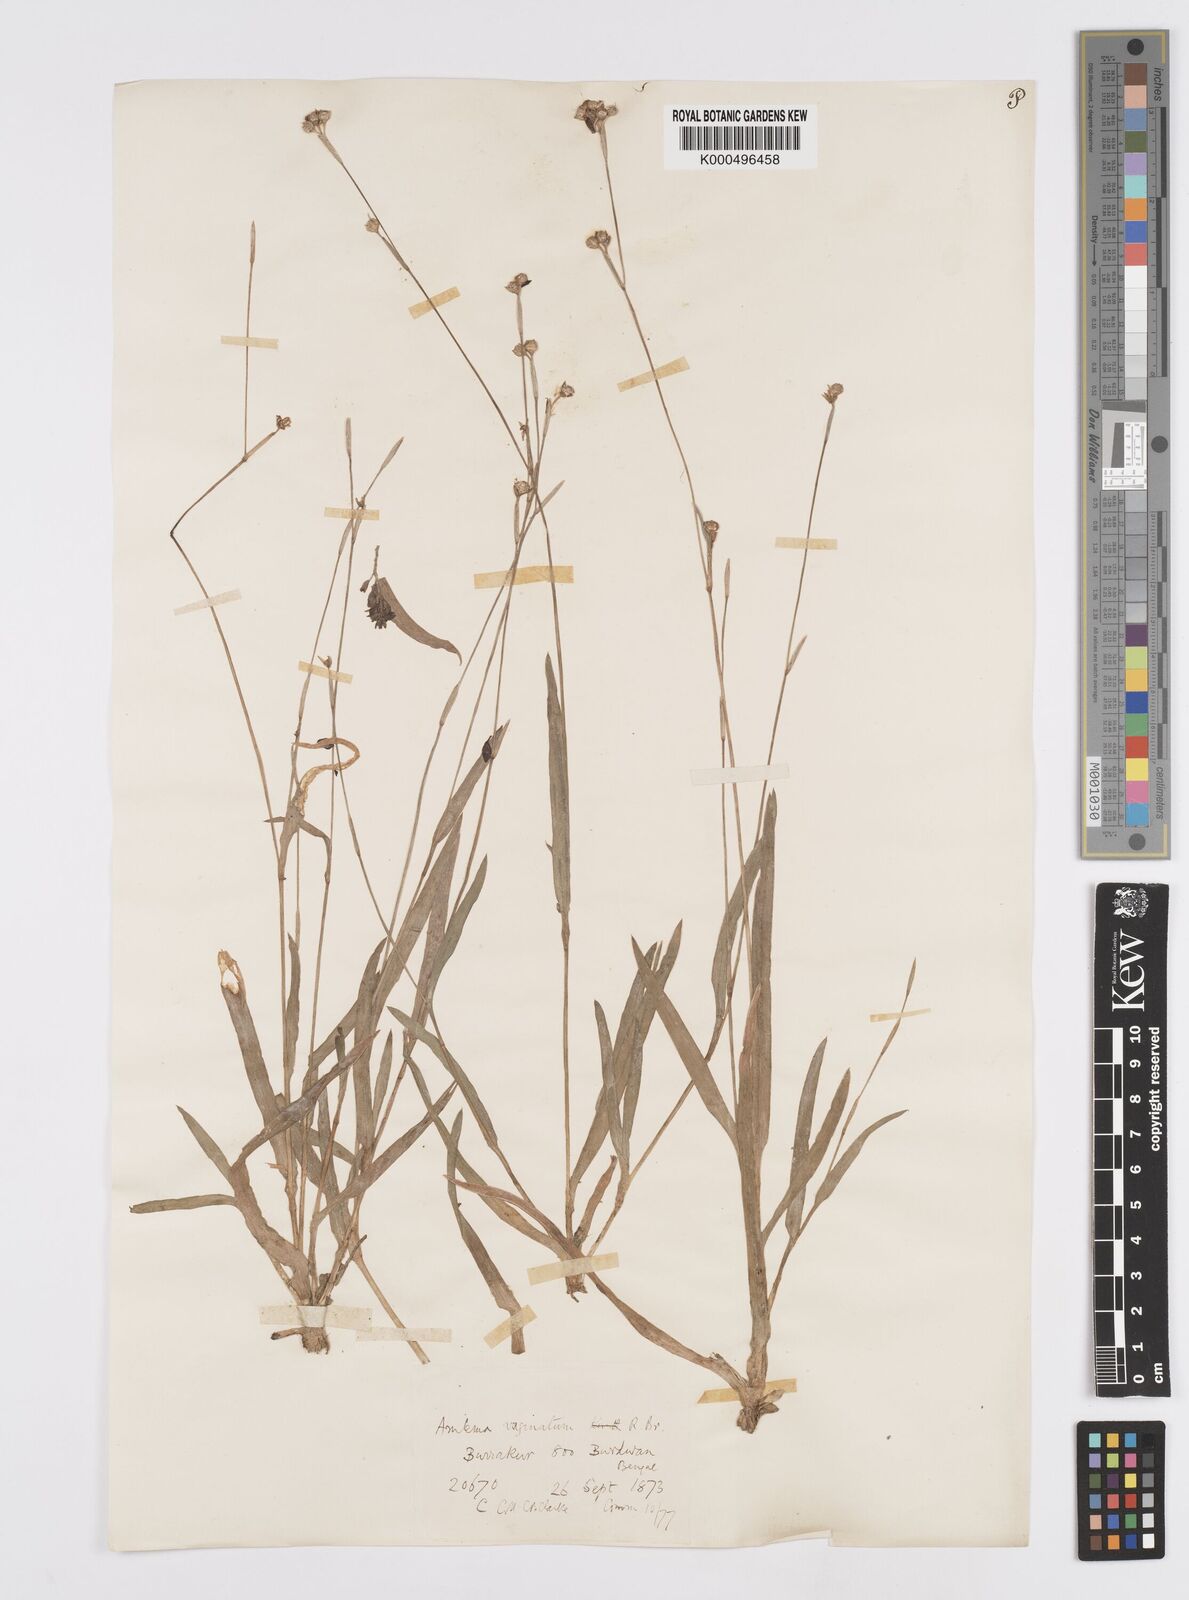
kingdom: Plantae
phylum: Tracheophyta
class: Liliopsida
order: Commelinales
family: Commelinaceae
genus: Murdannia
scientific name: Murdannia
